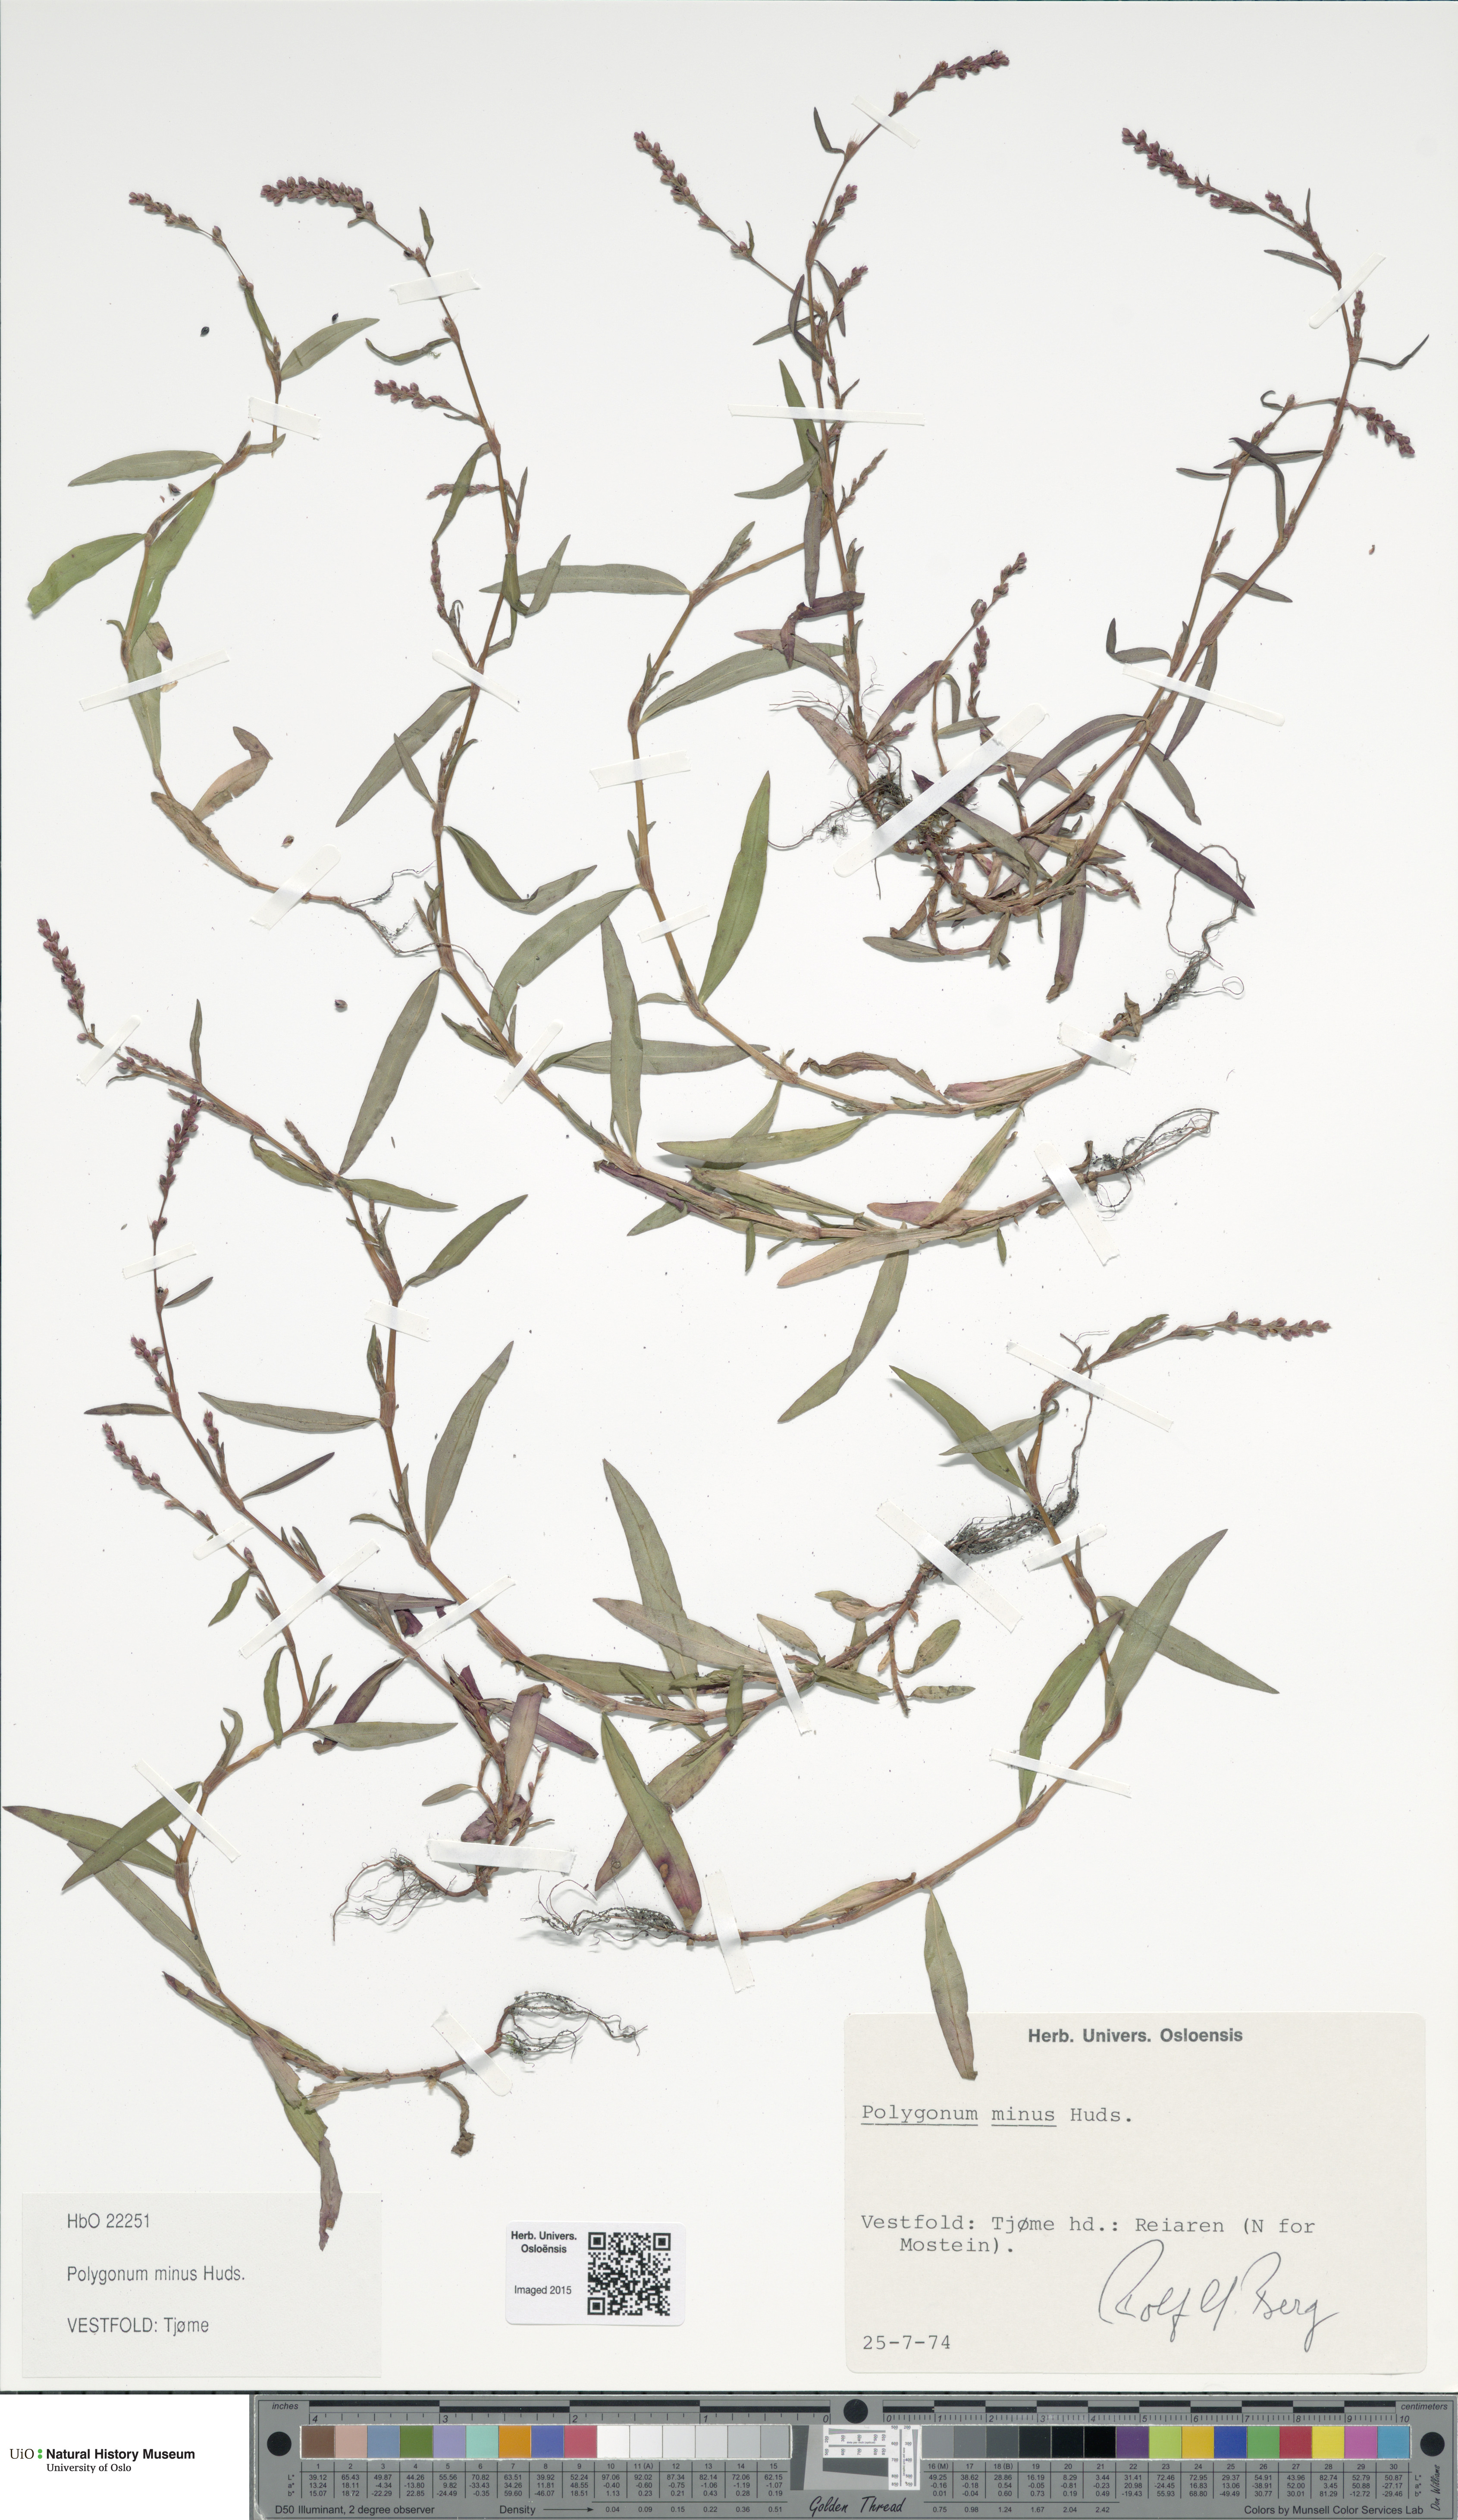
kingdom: Plantae
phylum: Tracheophyta
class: Magnoliopsida
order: Caryophyllales
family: Polygonaceae
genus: Persicaria
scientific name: Persicaria minor
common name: Small water-pepper
